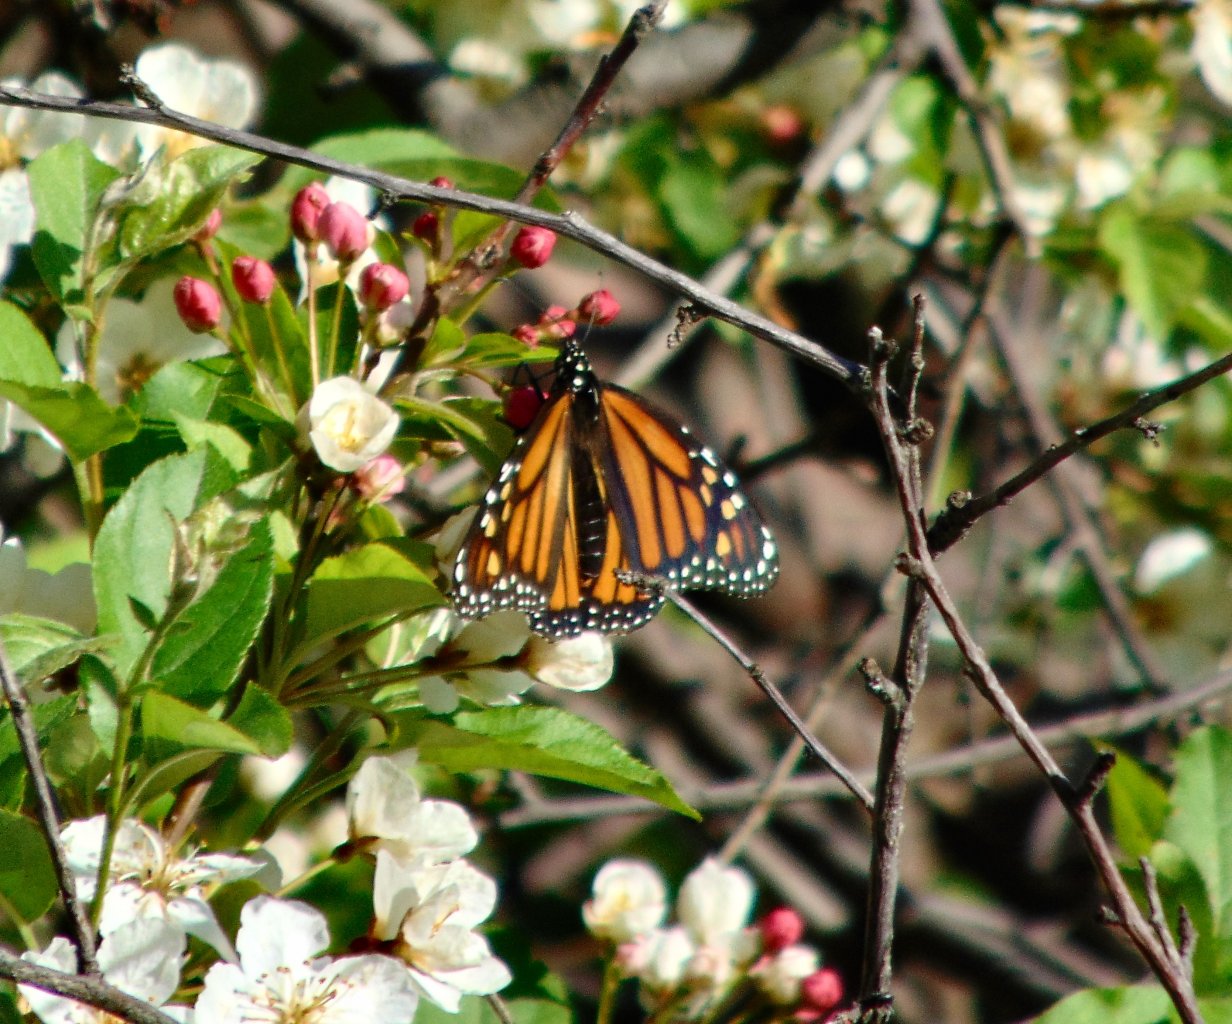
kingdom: Animalia
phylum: Arthropoda
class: Insecta
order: Lepidoptera
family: Nymphalidae
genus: Danaus
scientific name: Danaus plexippus
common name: Monarch
